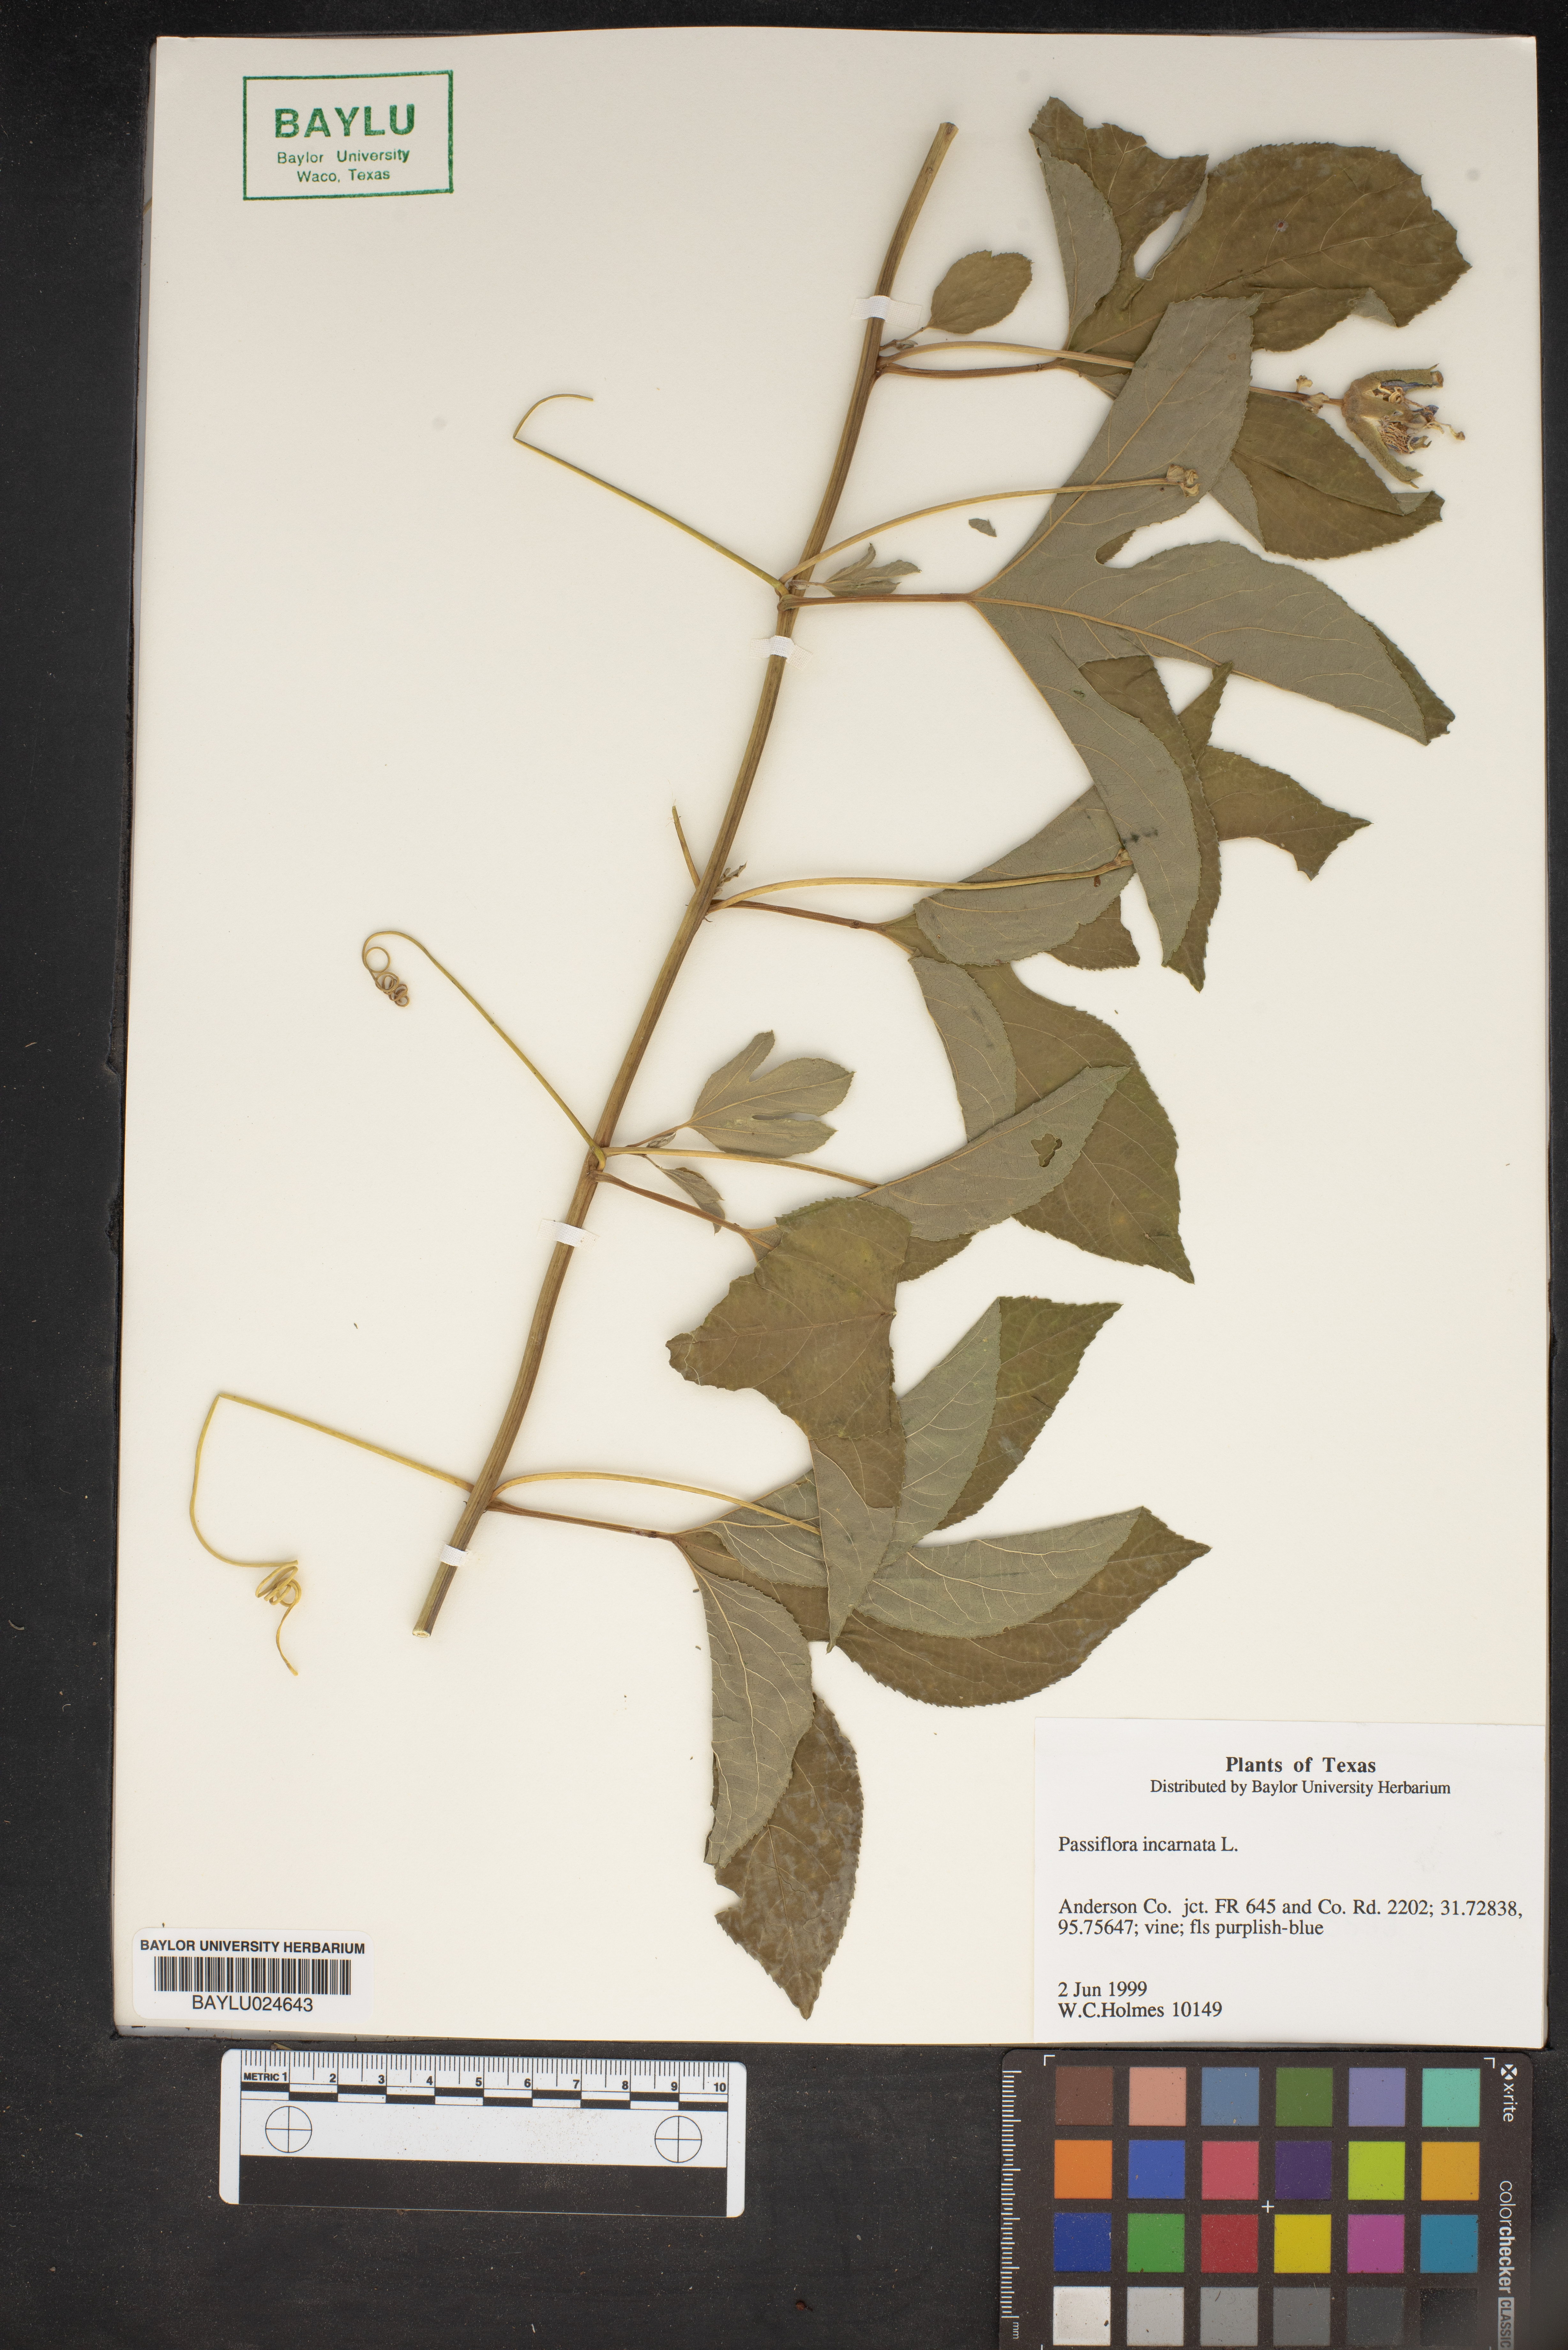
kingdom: Plantae
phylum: Tracheophyta
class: Magnoliopsida
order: Malpighiales
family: Passifloraceae
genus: Passiflora
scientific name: Passiflora incarnata
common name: Apricot-vine
